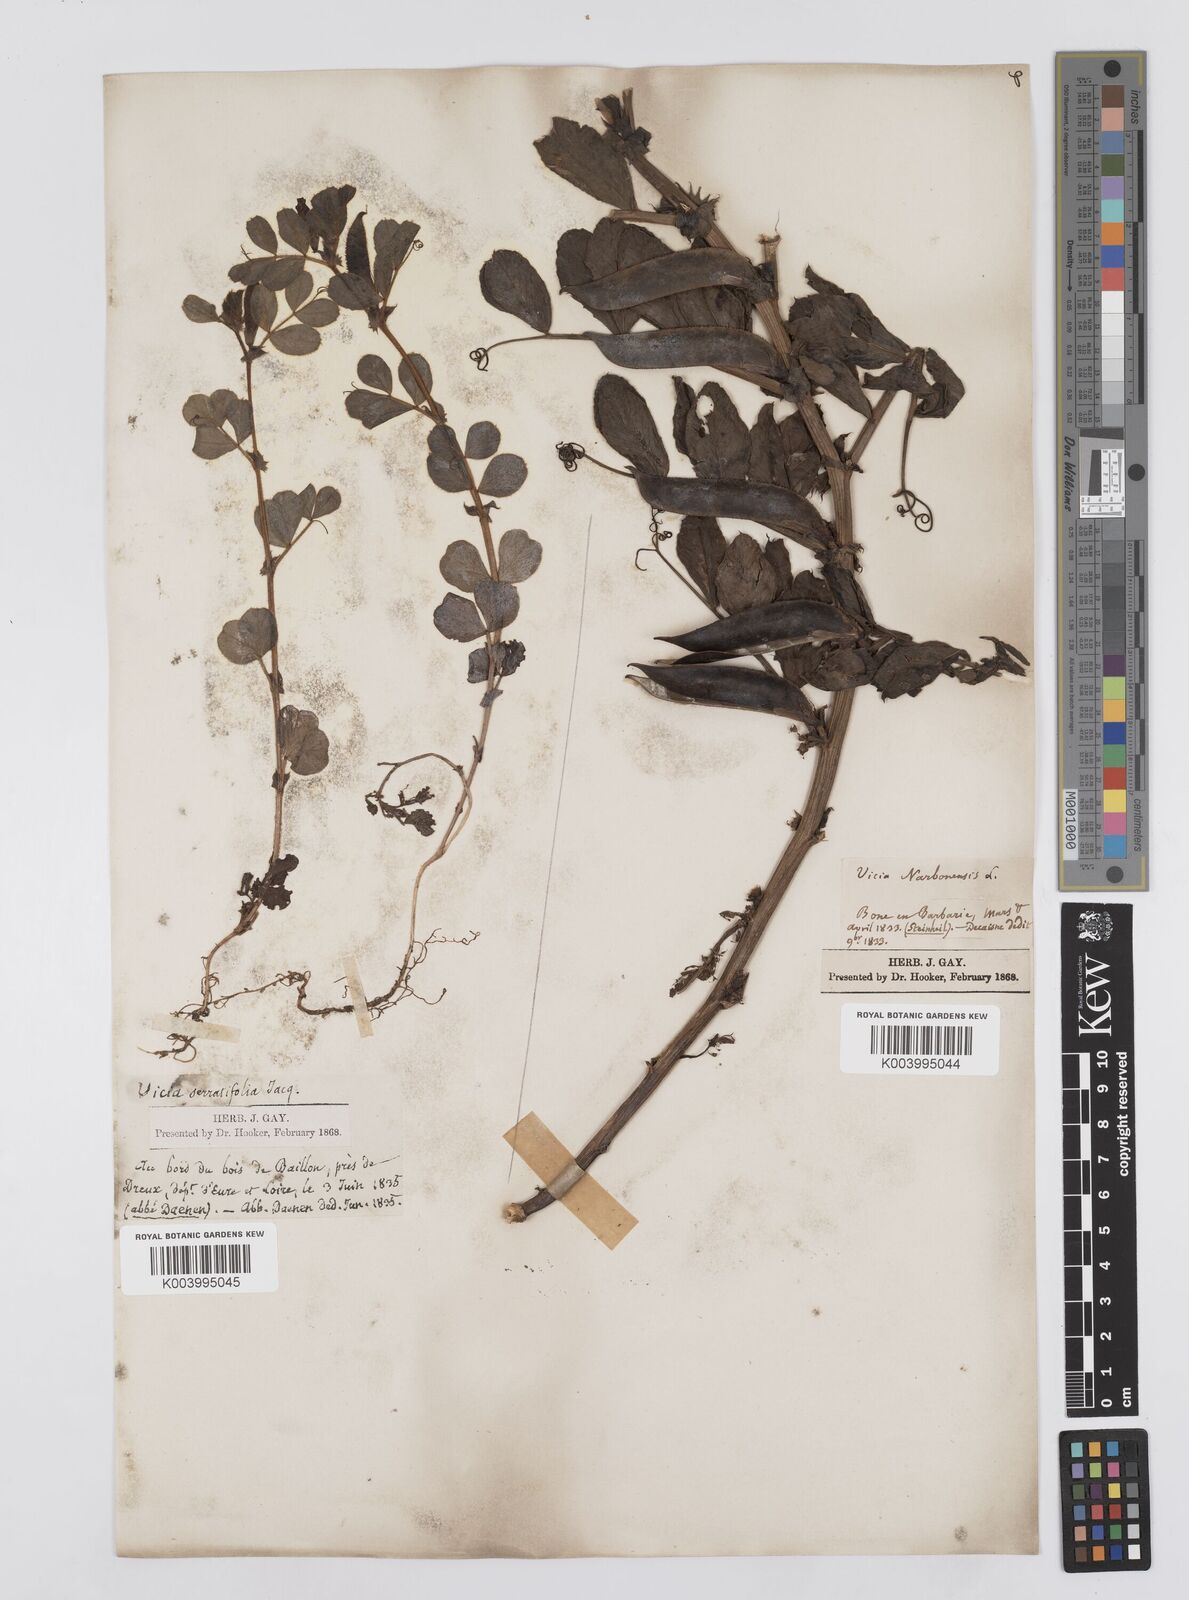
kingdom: Plantae
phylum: Tracheophyta
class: Magnoliopsida
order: Fabales
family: Fabaceae
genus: Vicia
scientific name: Vicia narbonensis
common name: Narbonne vetch
